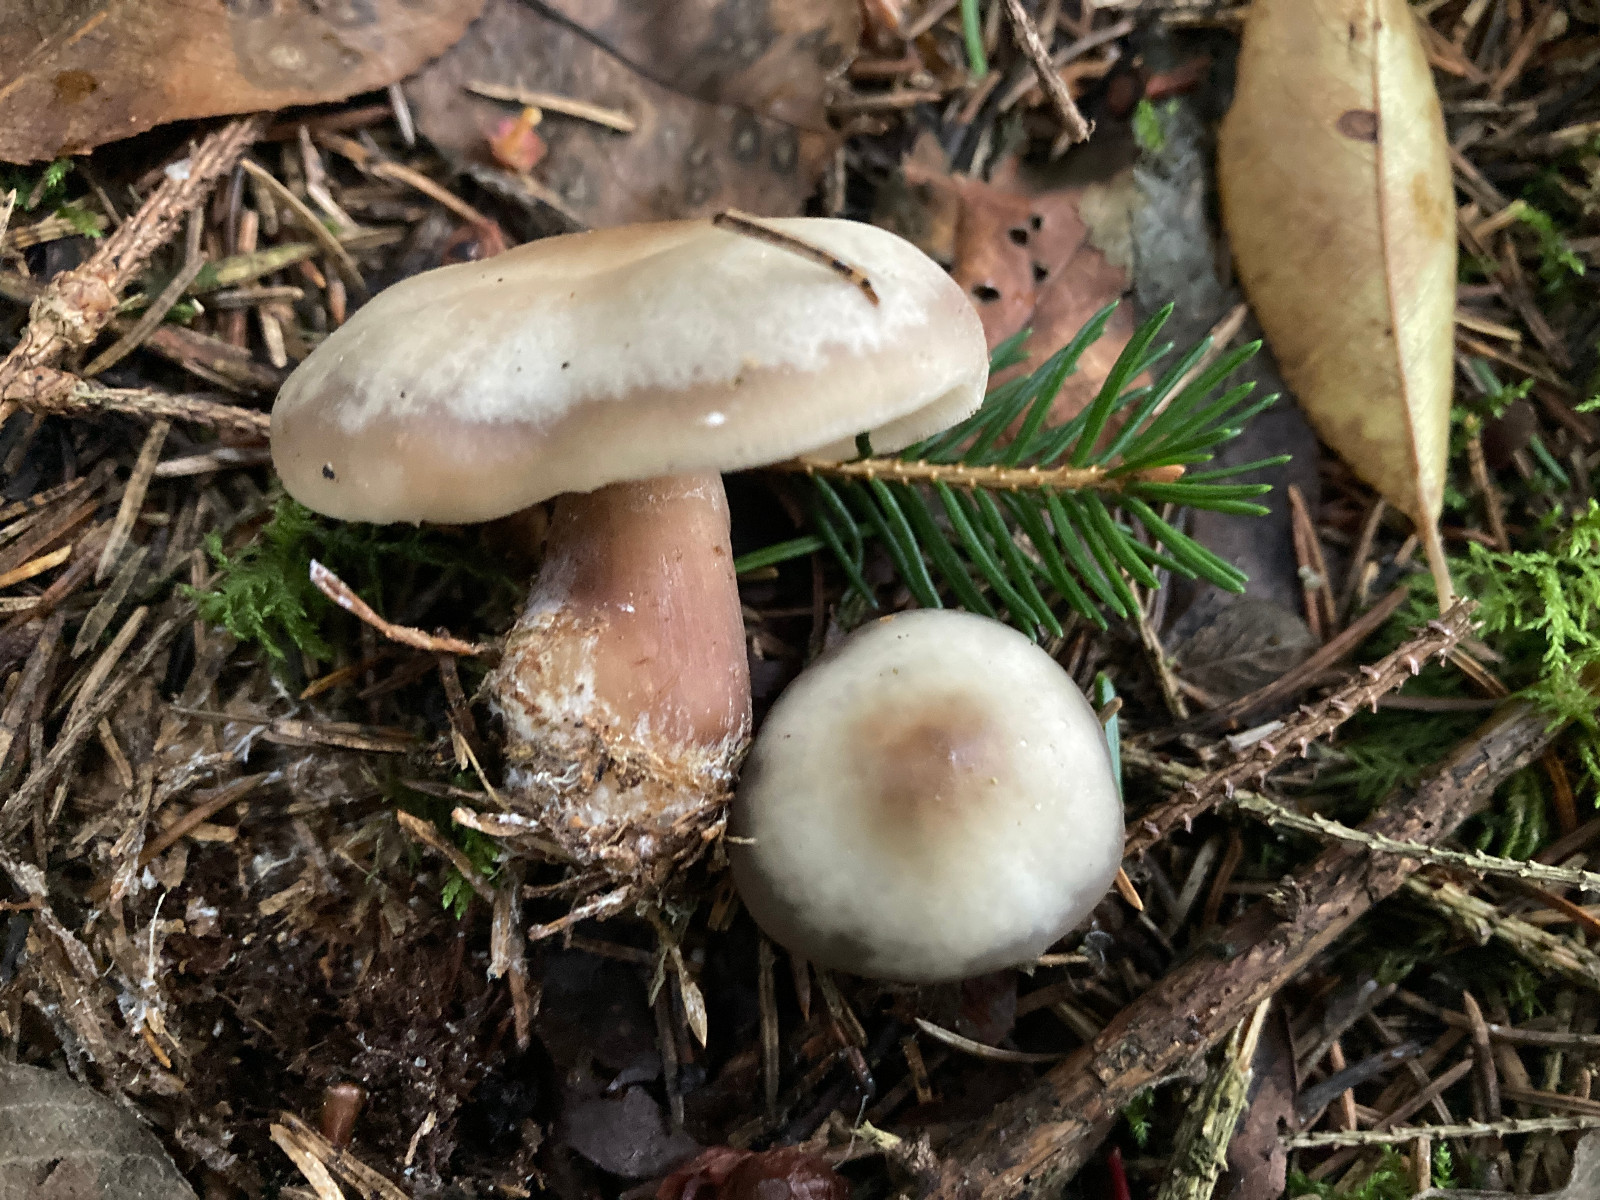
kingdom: Fungi
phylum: Basidiomycota
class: Agaricomycetes
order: Agaricales
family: Omphalotaceae
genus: Rhodocollybia
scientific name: Rhodocollybia asema
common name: horngrå fladhat
